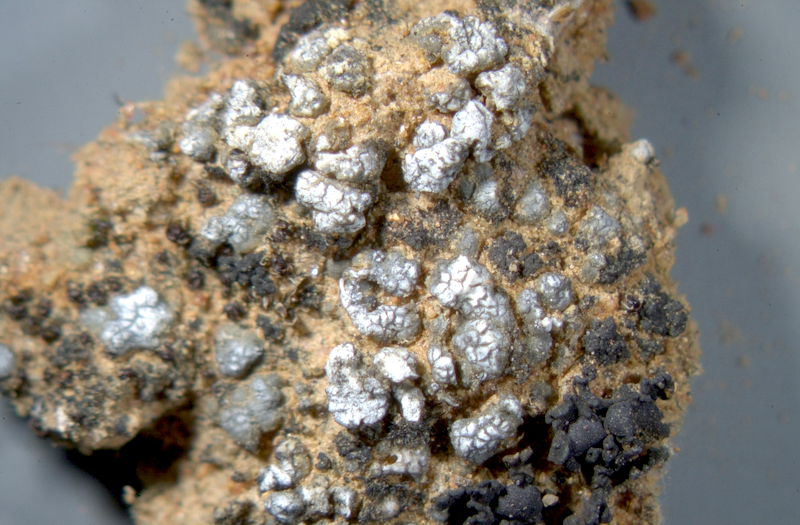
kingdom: Fungi
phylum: Ascomycota
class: Lecanoromycetes
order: Lecanorales
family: Ramalinaceae
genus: Toninia
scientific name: Toninia
